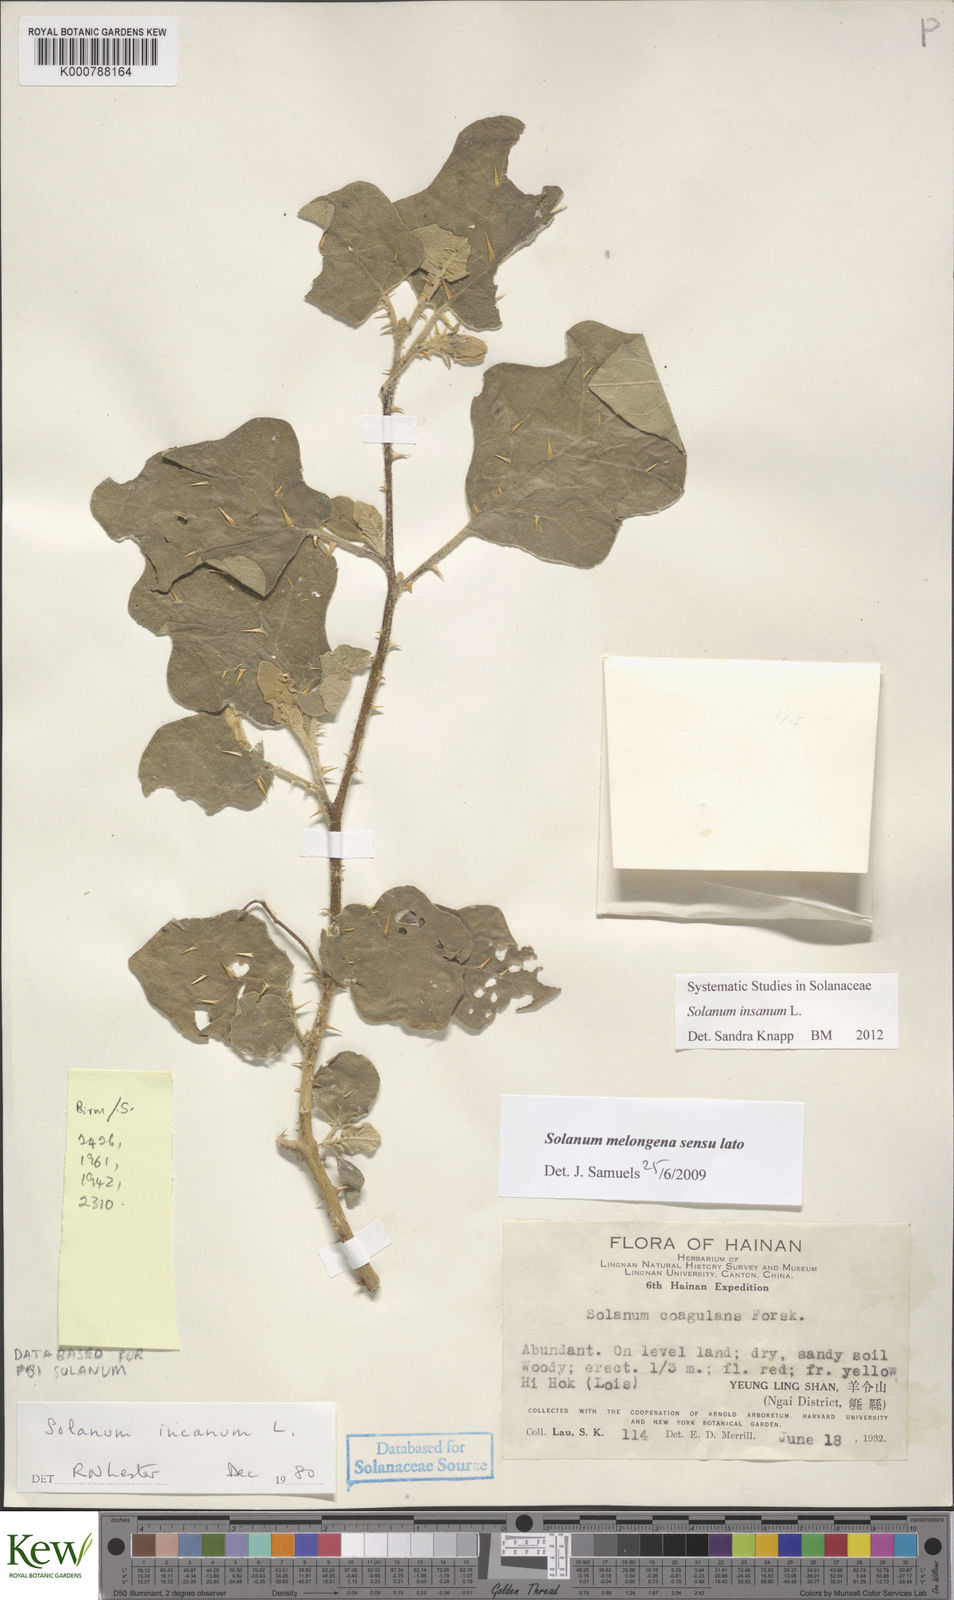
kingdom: Plantae
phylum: Tracheophyta
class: Magnoliopsida
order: Solanales
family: Solanaceae
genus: Solanum
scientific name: Solanum insanum
